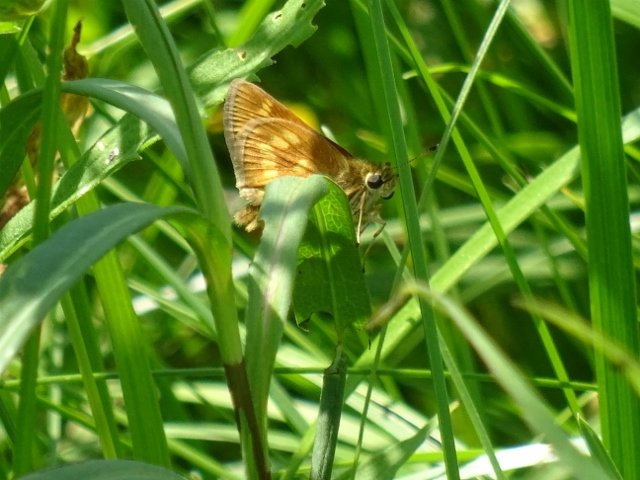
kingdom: Animalia
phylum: Arthropoda
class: Insecta
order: Lepidoptera
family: Hesperiidae
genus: Polites
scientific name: Polites
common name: Long Dash Skipper
